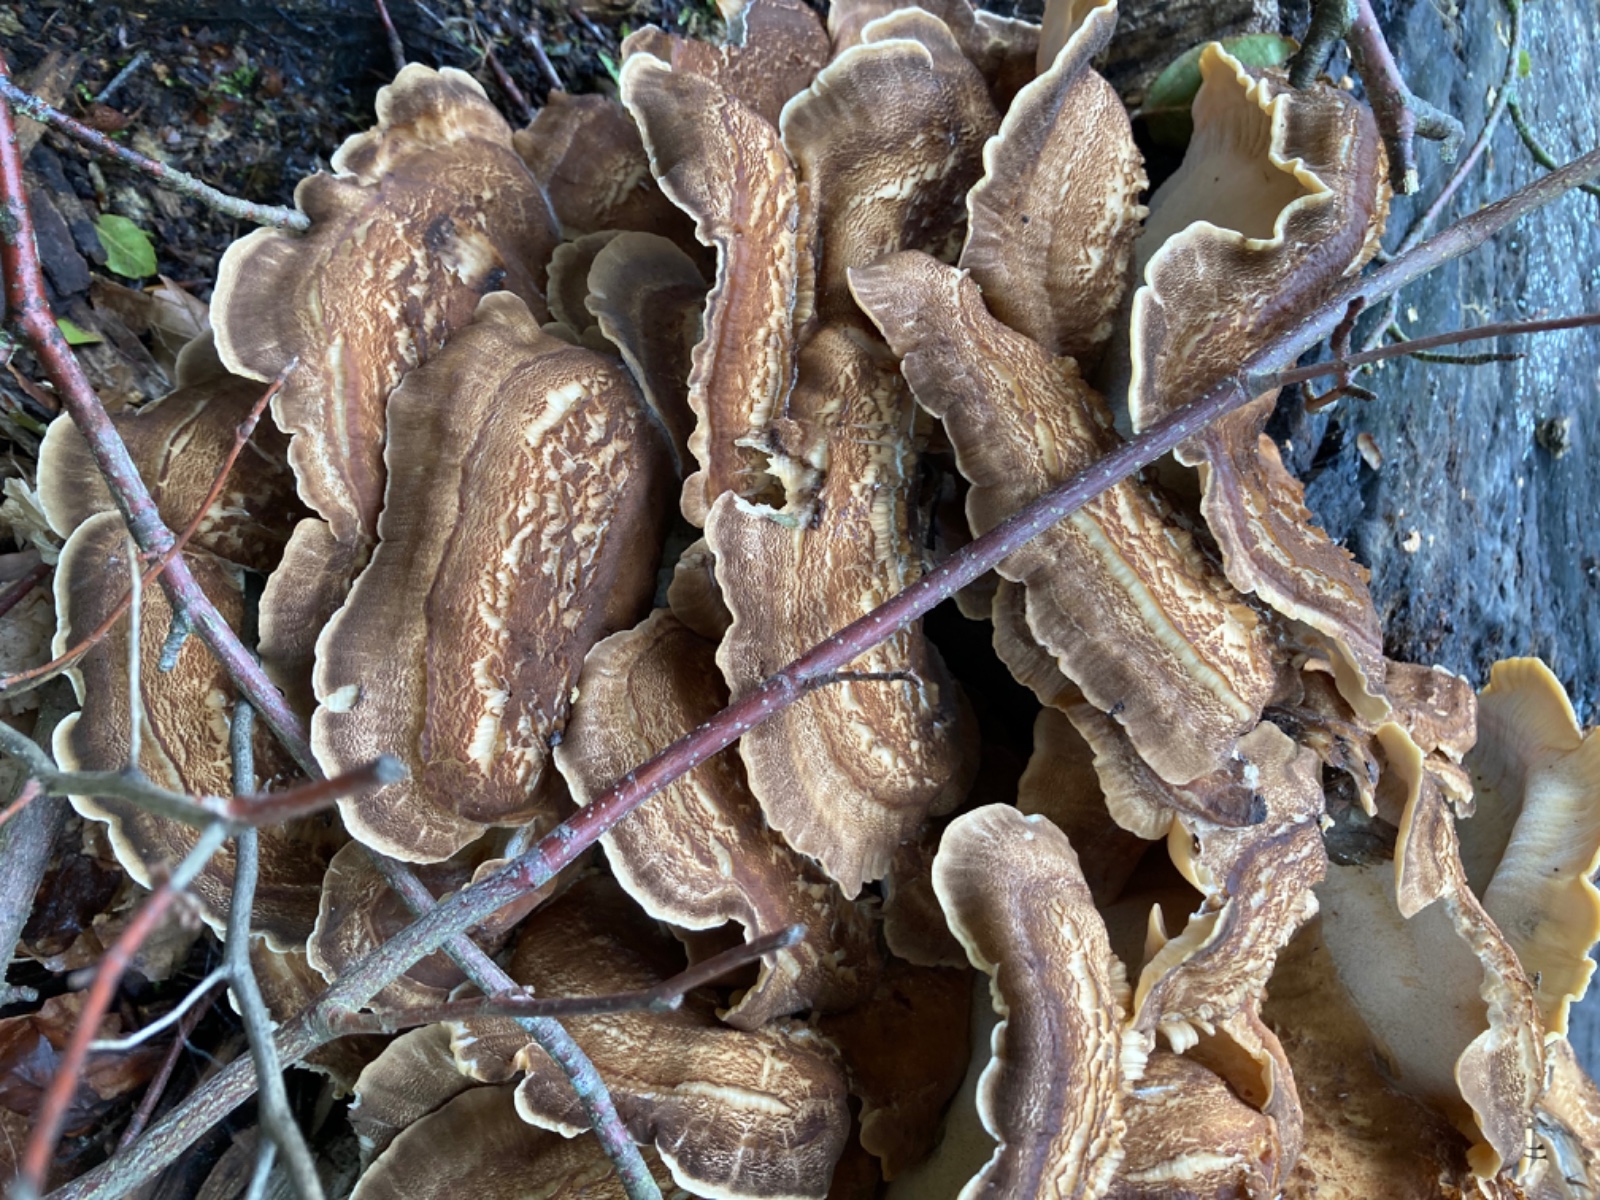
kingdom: Fungi
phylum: Basidiomycota
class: Agaricomycetes
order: Polyporales
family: Meripilaceae
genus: Meripilus
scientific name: Meripilus giganteus
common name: kæmpeporesvamp
